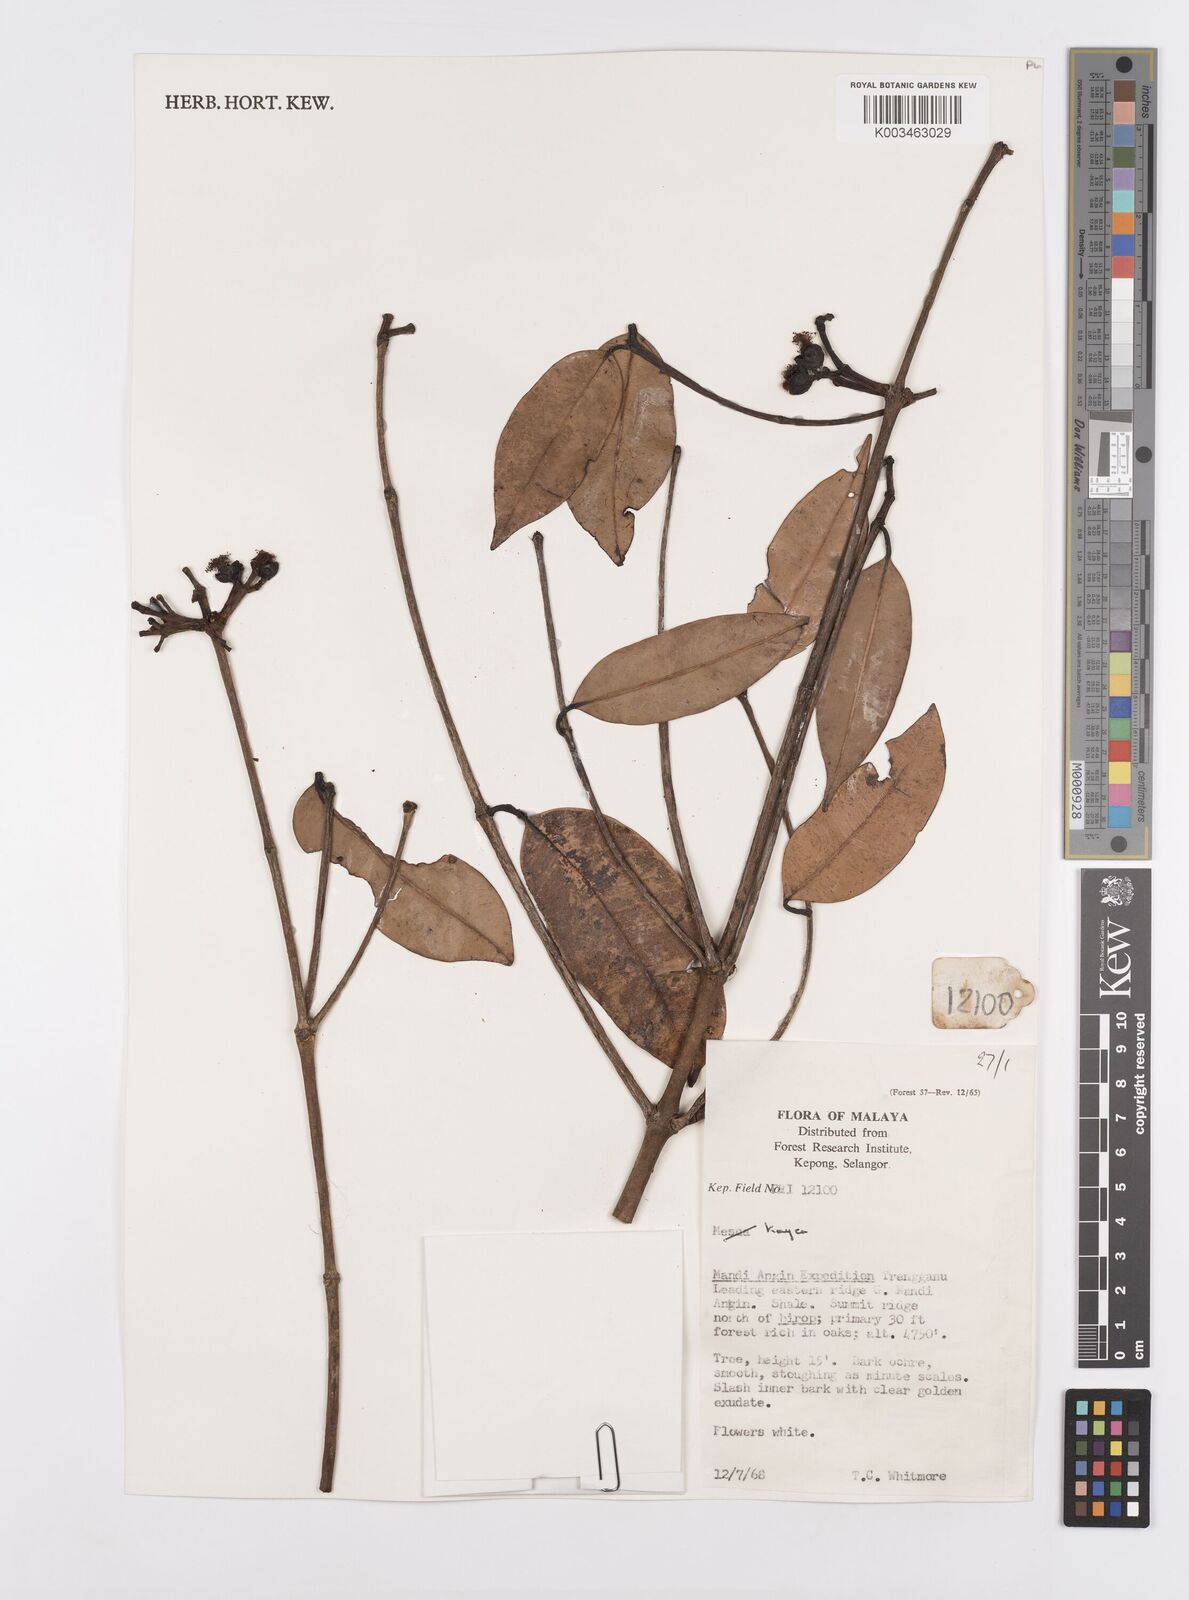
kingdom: Plantae
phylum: Tracheophyta
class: Magnoliopsida
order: Malpighiales
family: Calophyllaceae
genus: Kayea
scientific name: Kayea
